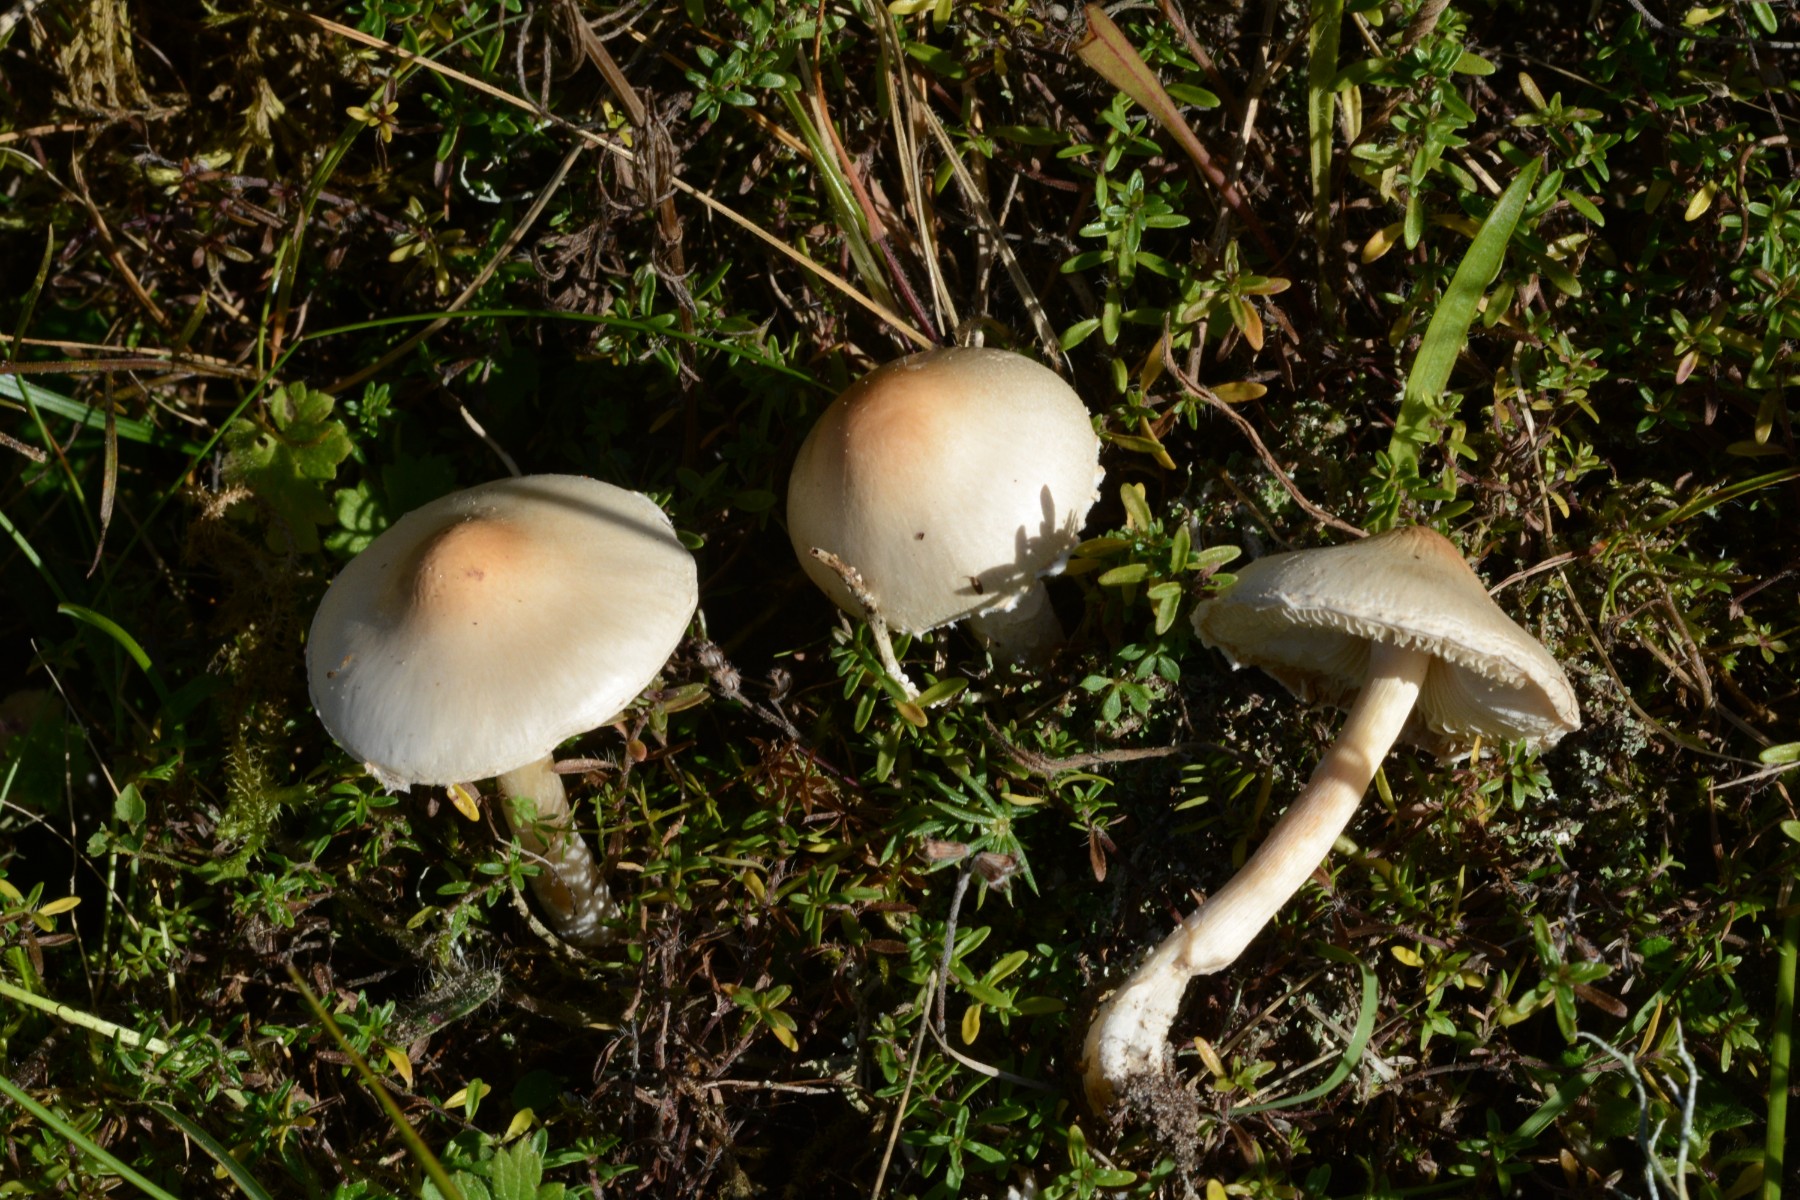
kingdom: Fungi
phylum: Basidiomycota
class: Agaricomycetes
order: Agaricales
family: Agaricaceae
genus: Lepiota
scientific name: Lepiota erminea
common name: hvid parasolhat
